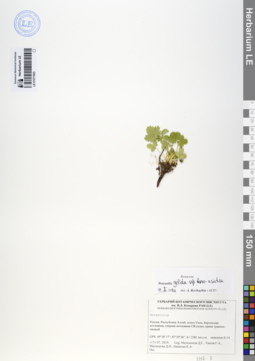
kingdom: Plantae
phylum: Tracheophyta
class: Magnoliopsida
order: Rosales
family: Rosaceae
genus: Potentilla
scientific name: Potentilla crantzii
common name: Alpine cinquefoil
